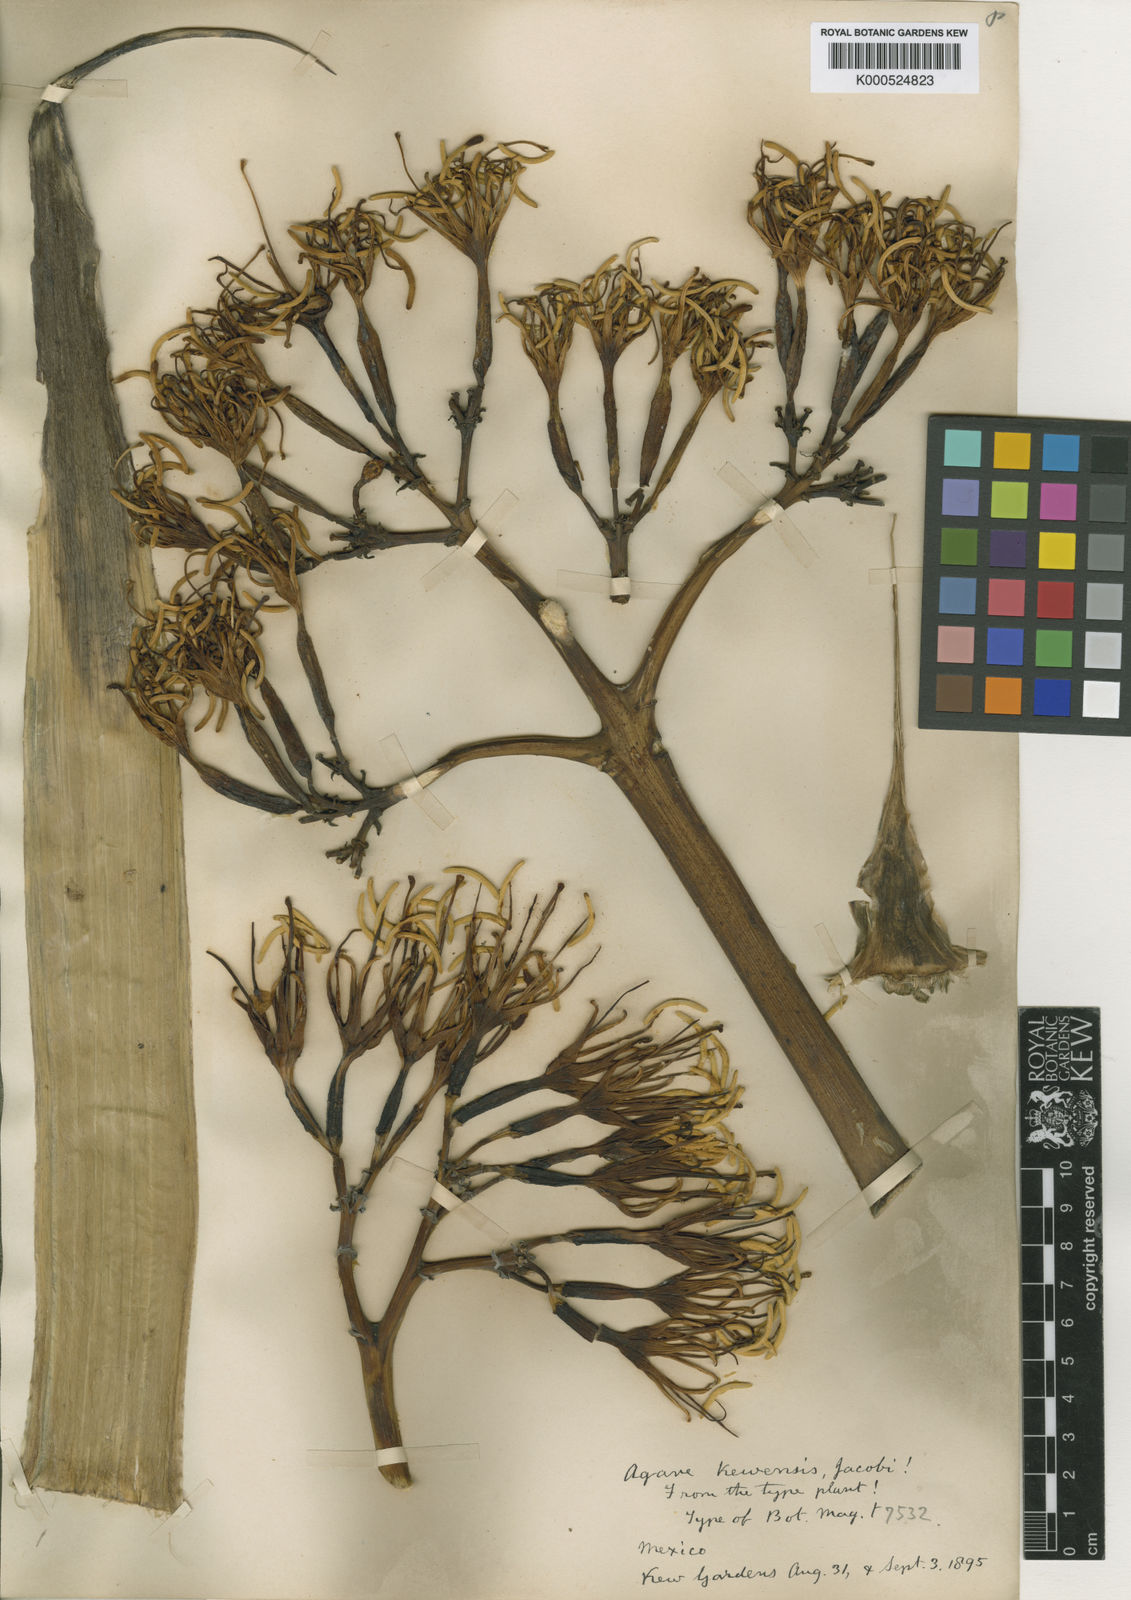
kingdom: Plantae
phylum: Tracheophyta
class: Liliopsida
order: Asparagales
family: Asparagaceae
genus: Agave
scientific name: Agave kewensis
